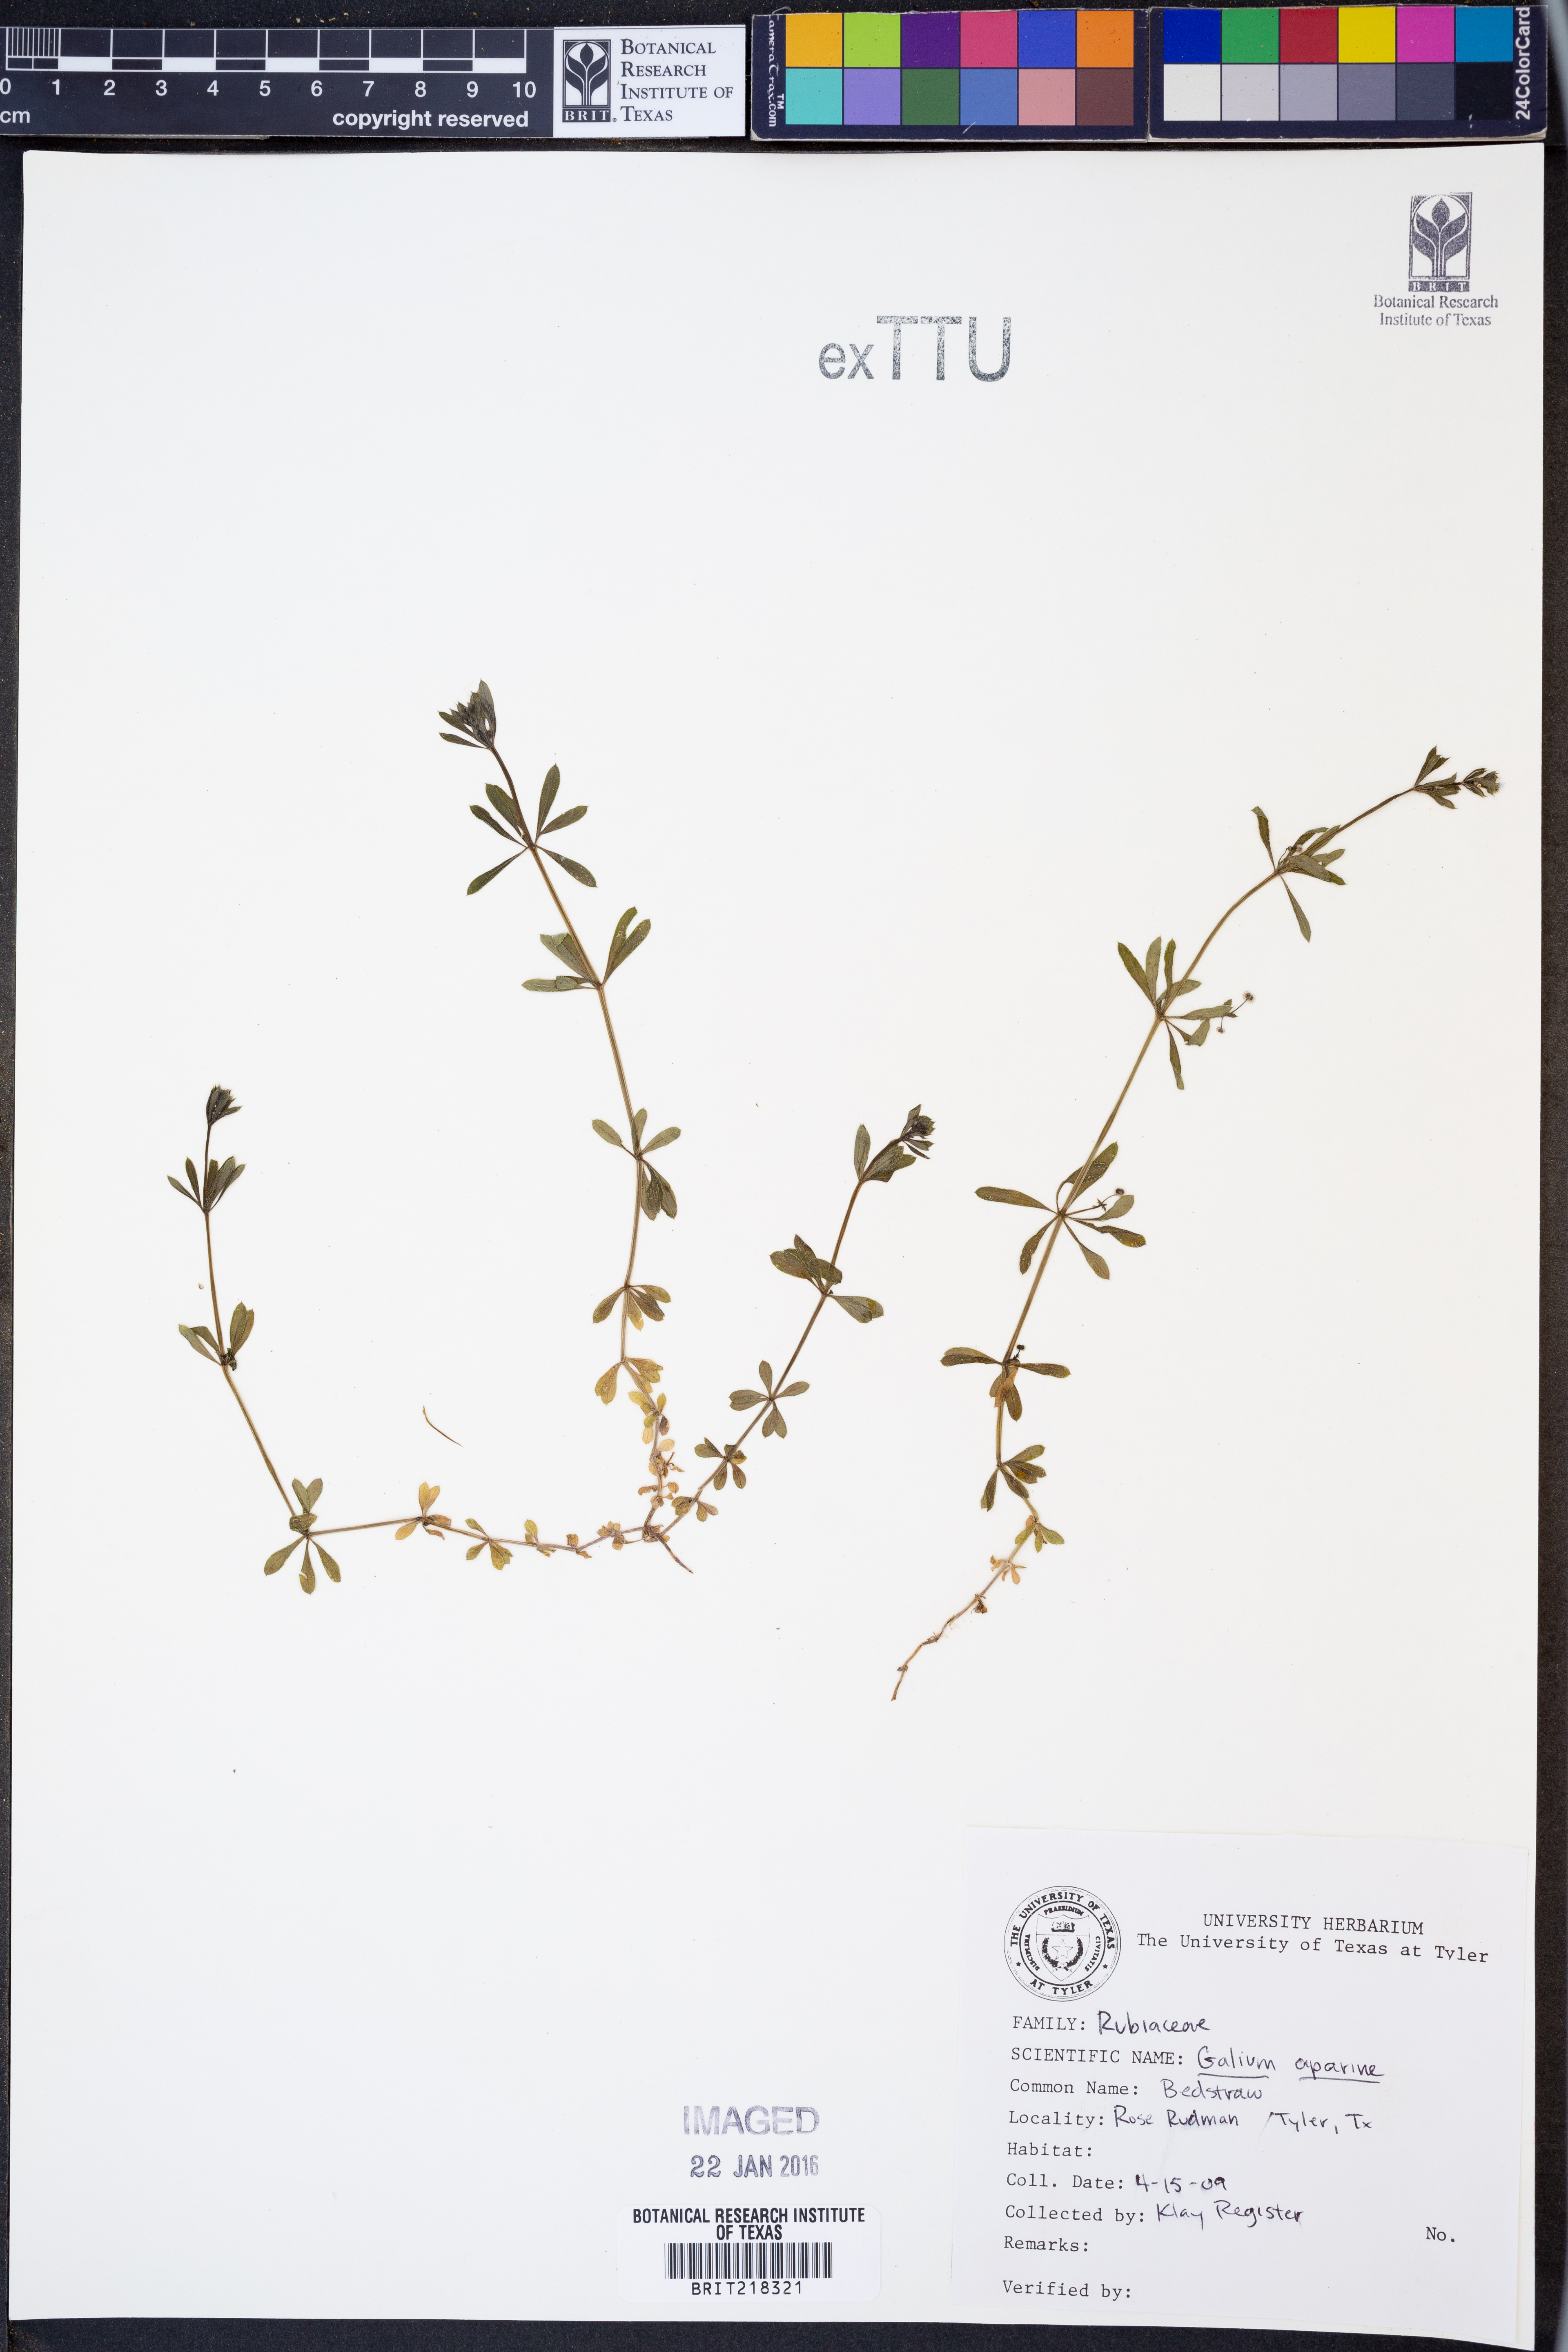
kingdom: Plantae
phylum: Tracheophyta
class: Magnoliopsida
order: Gentianales
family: Rubiaceae
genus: Galium
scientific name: Galium aparine
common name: Cleavers
